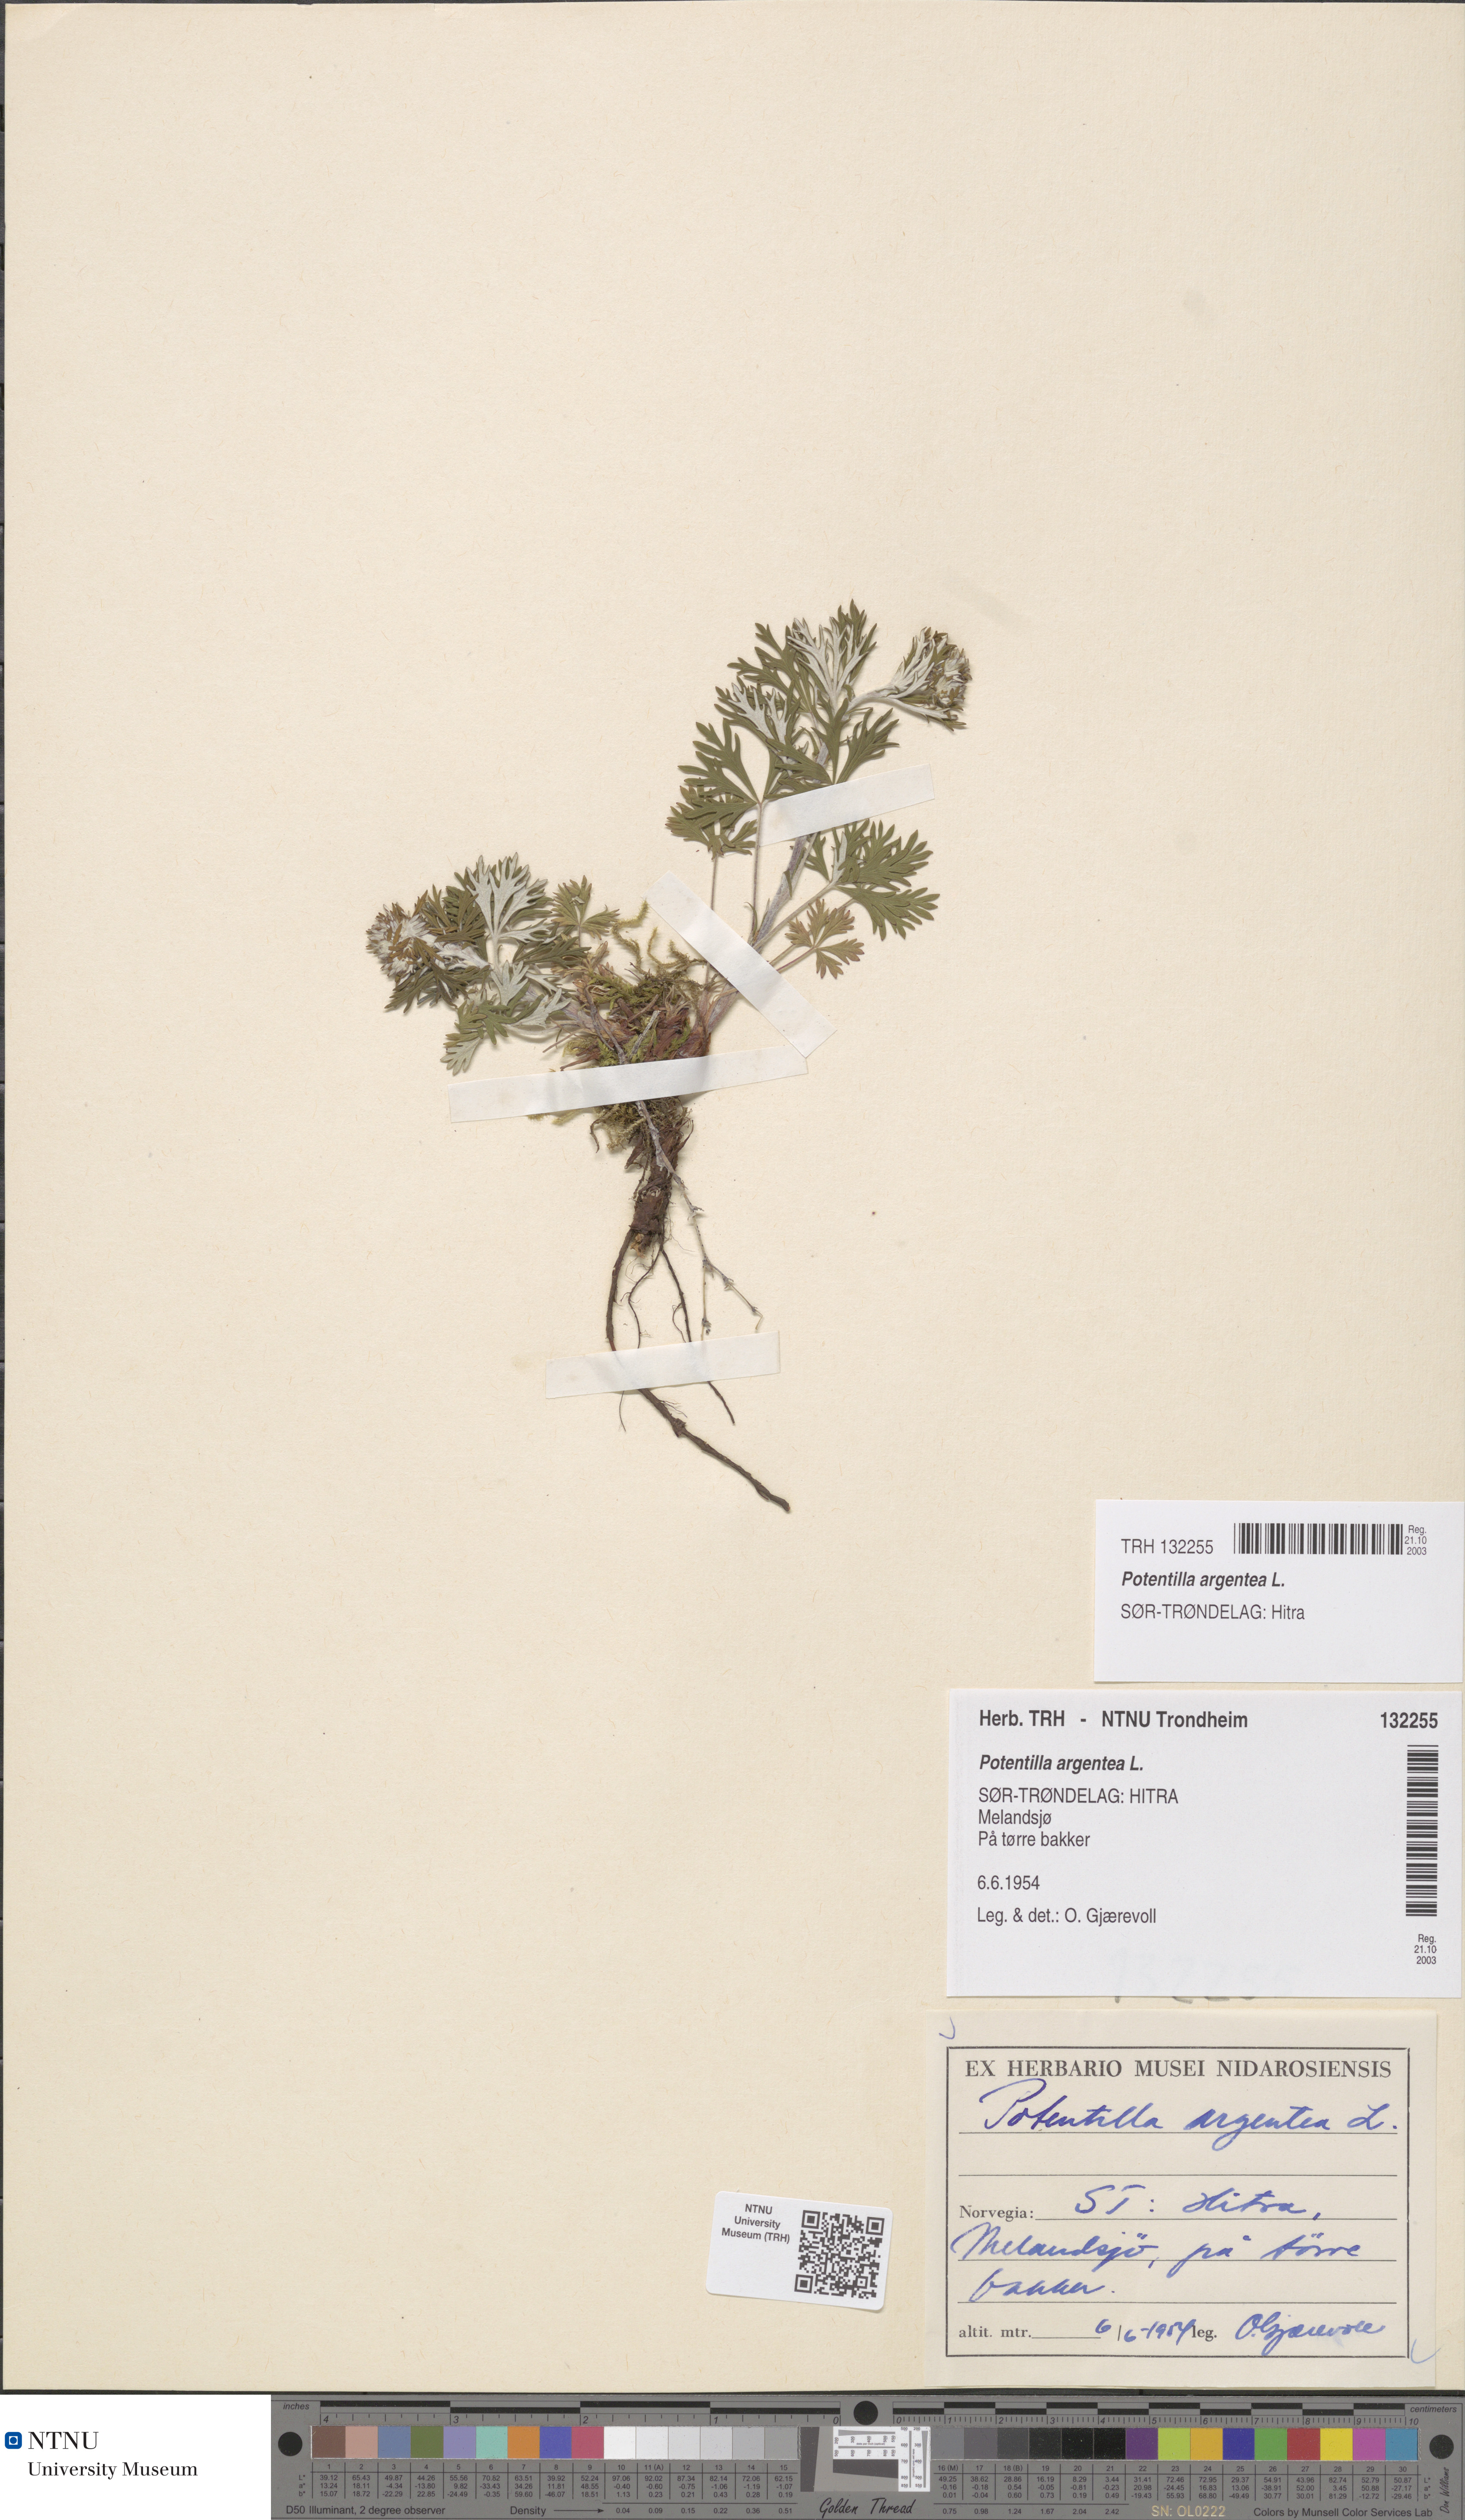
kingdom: Plantae
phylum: Tracheophyta
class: Magnoliopsida
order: Rosales
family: Rosaceae
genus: Potentilla
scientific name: Potentilla argentea
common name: Hoary cinquefoil
